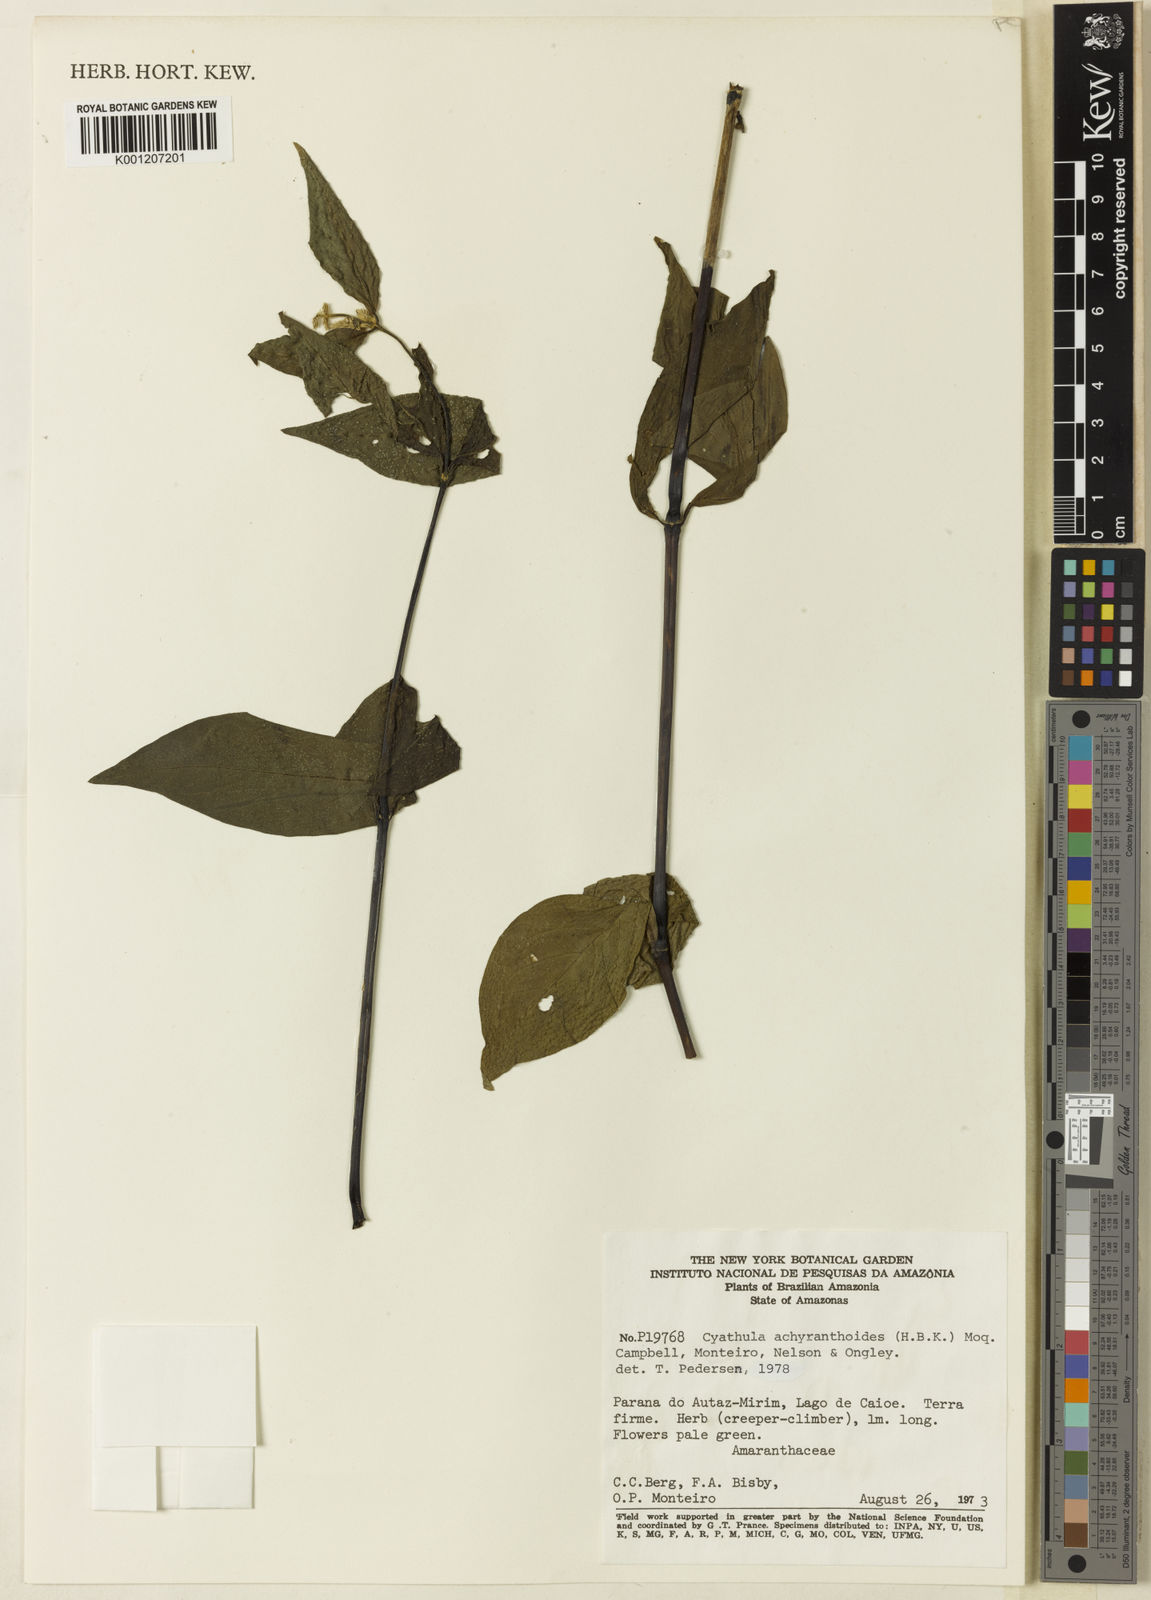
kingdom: Plantae
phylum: Tracheophyta
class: Magnoliopsida
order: Caryophyllales
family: Amaranthaceae
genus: Cyathula
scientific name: Cyathula achyranthoides
